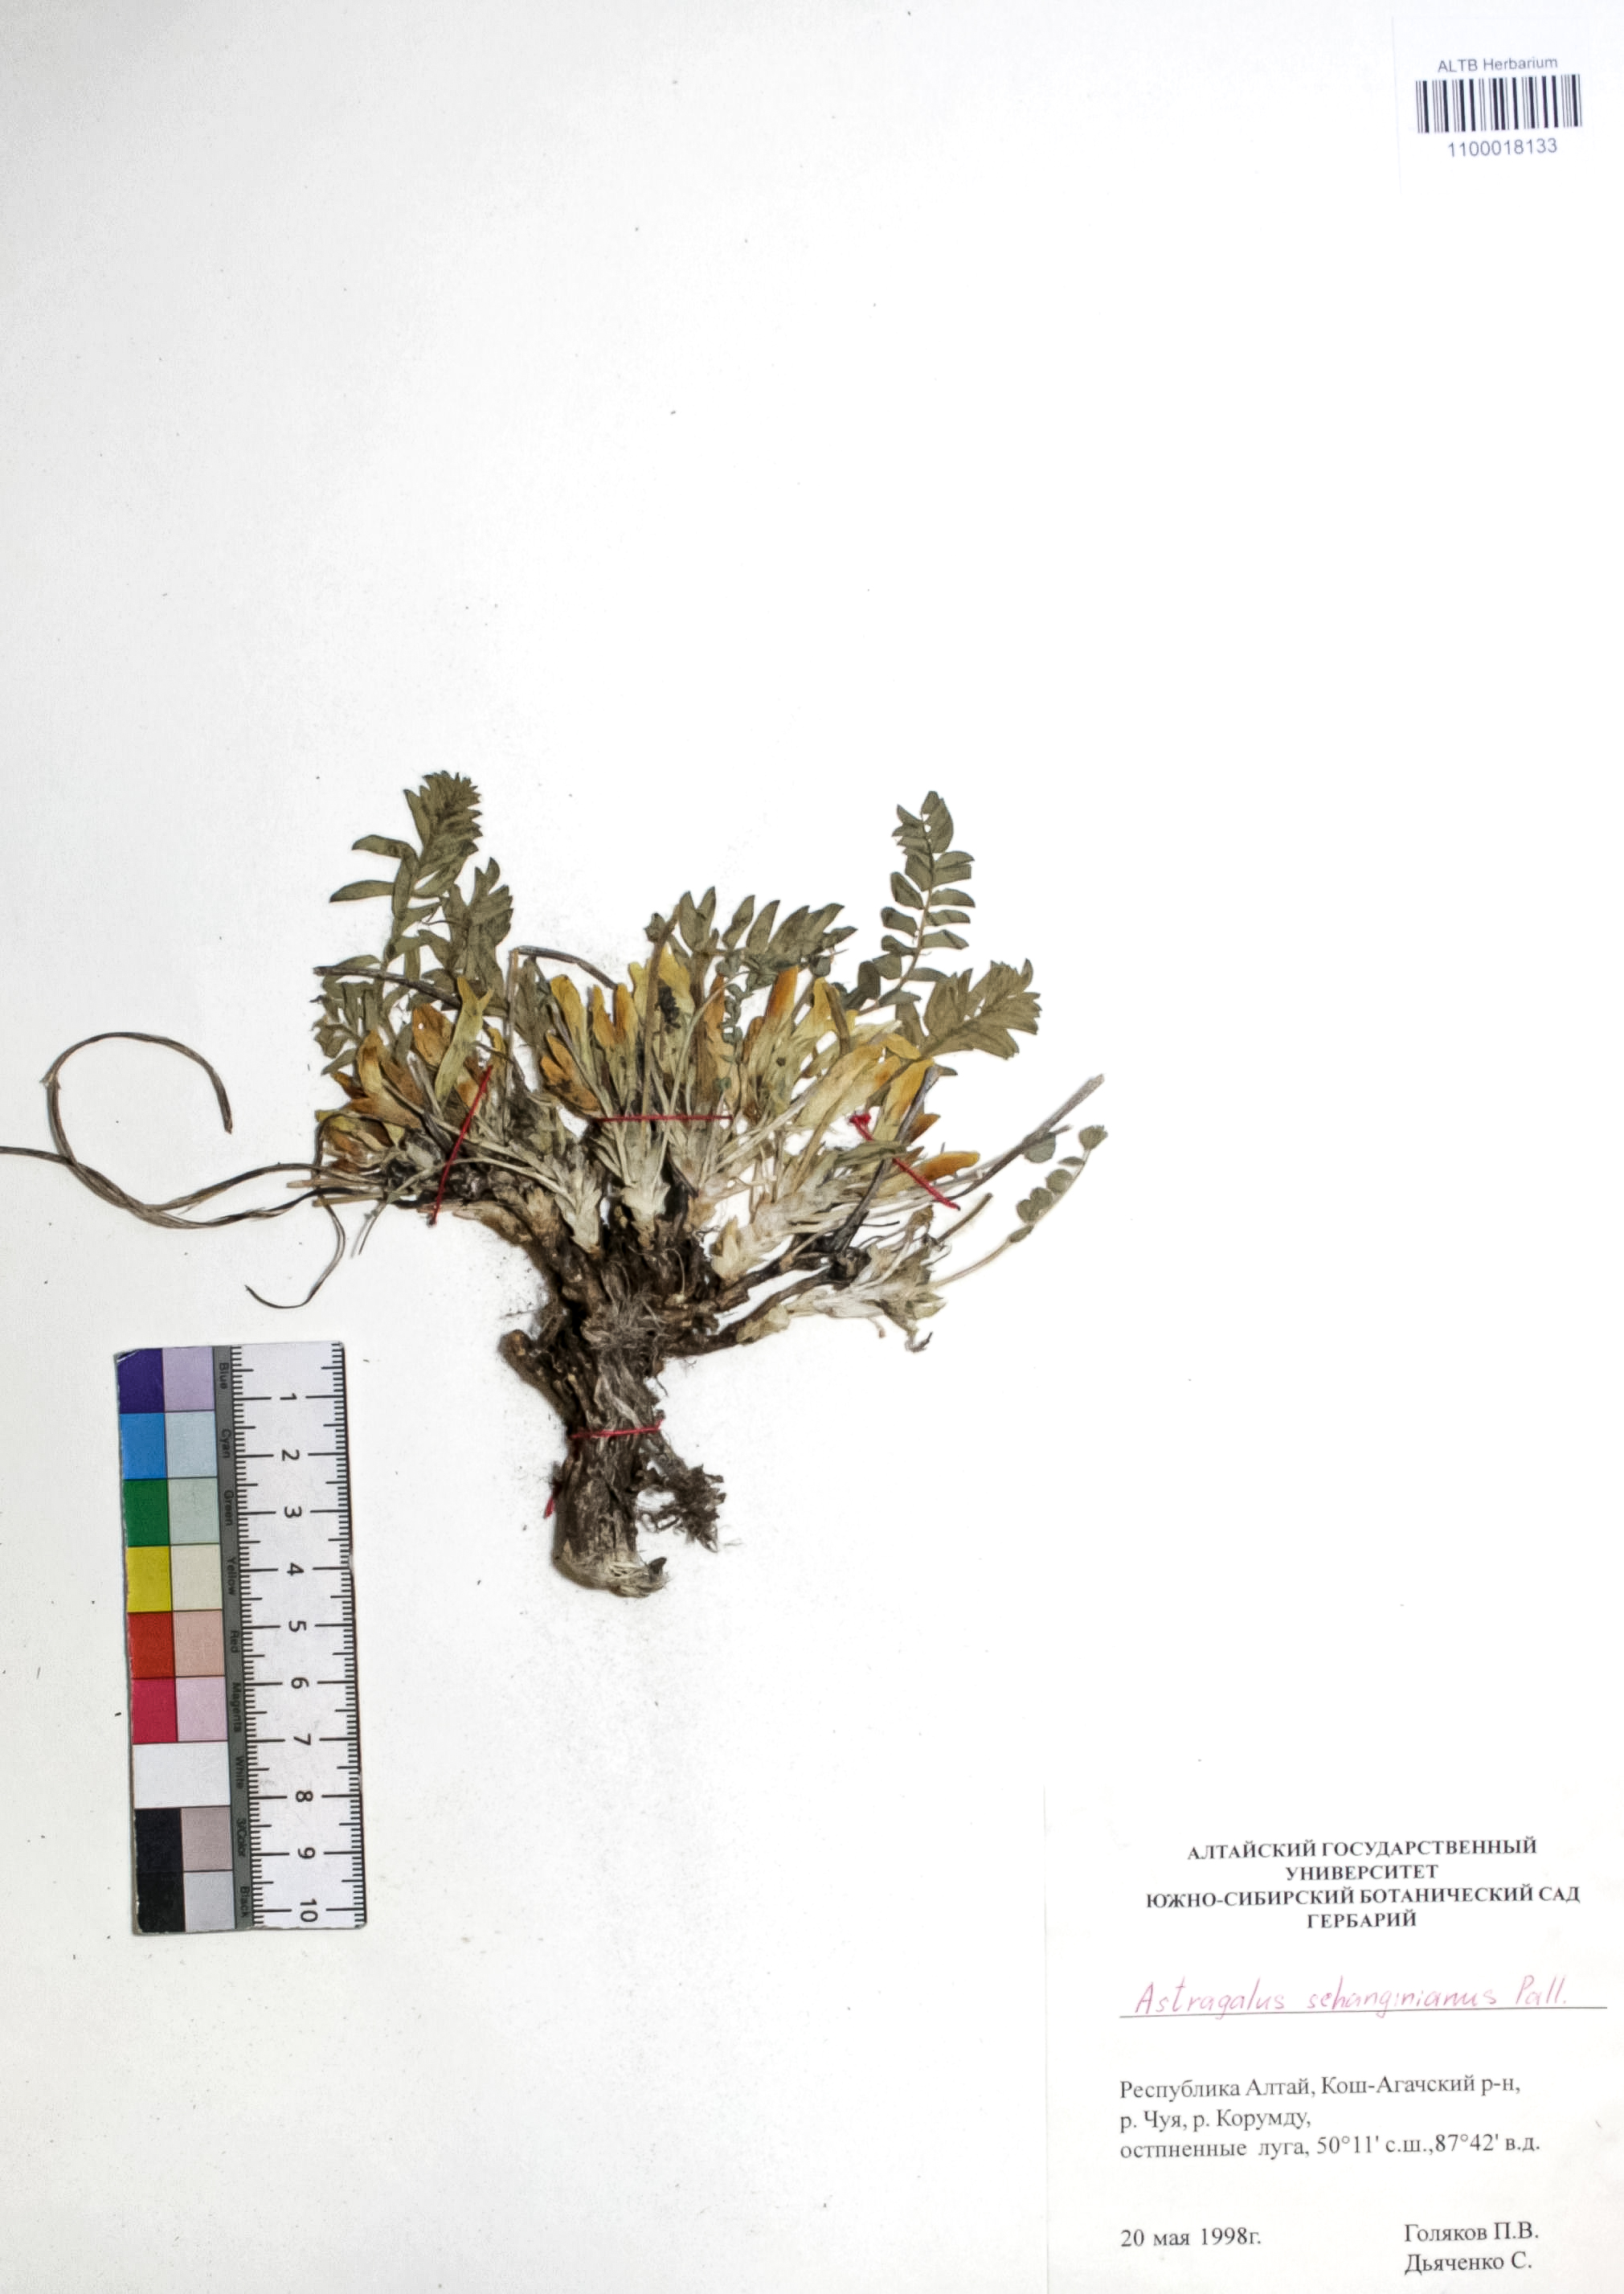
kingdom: Plantae
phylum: Tracheophyta
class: Magnoliopsida
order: Fabales
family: Fabaceae
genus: Astragalus
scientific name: Astragalus schanginianus
